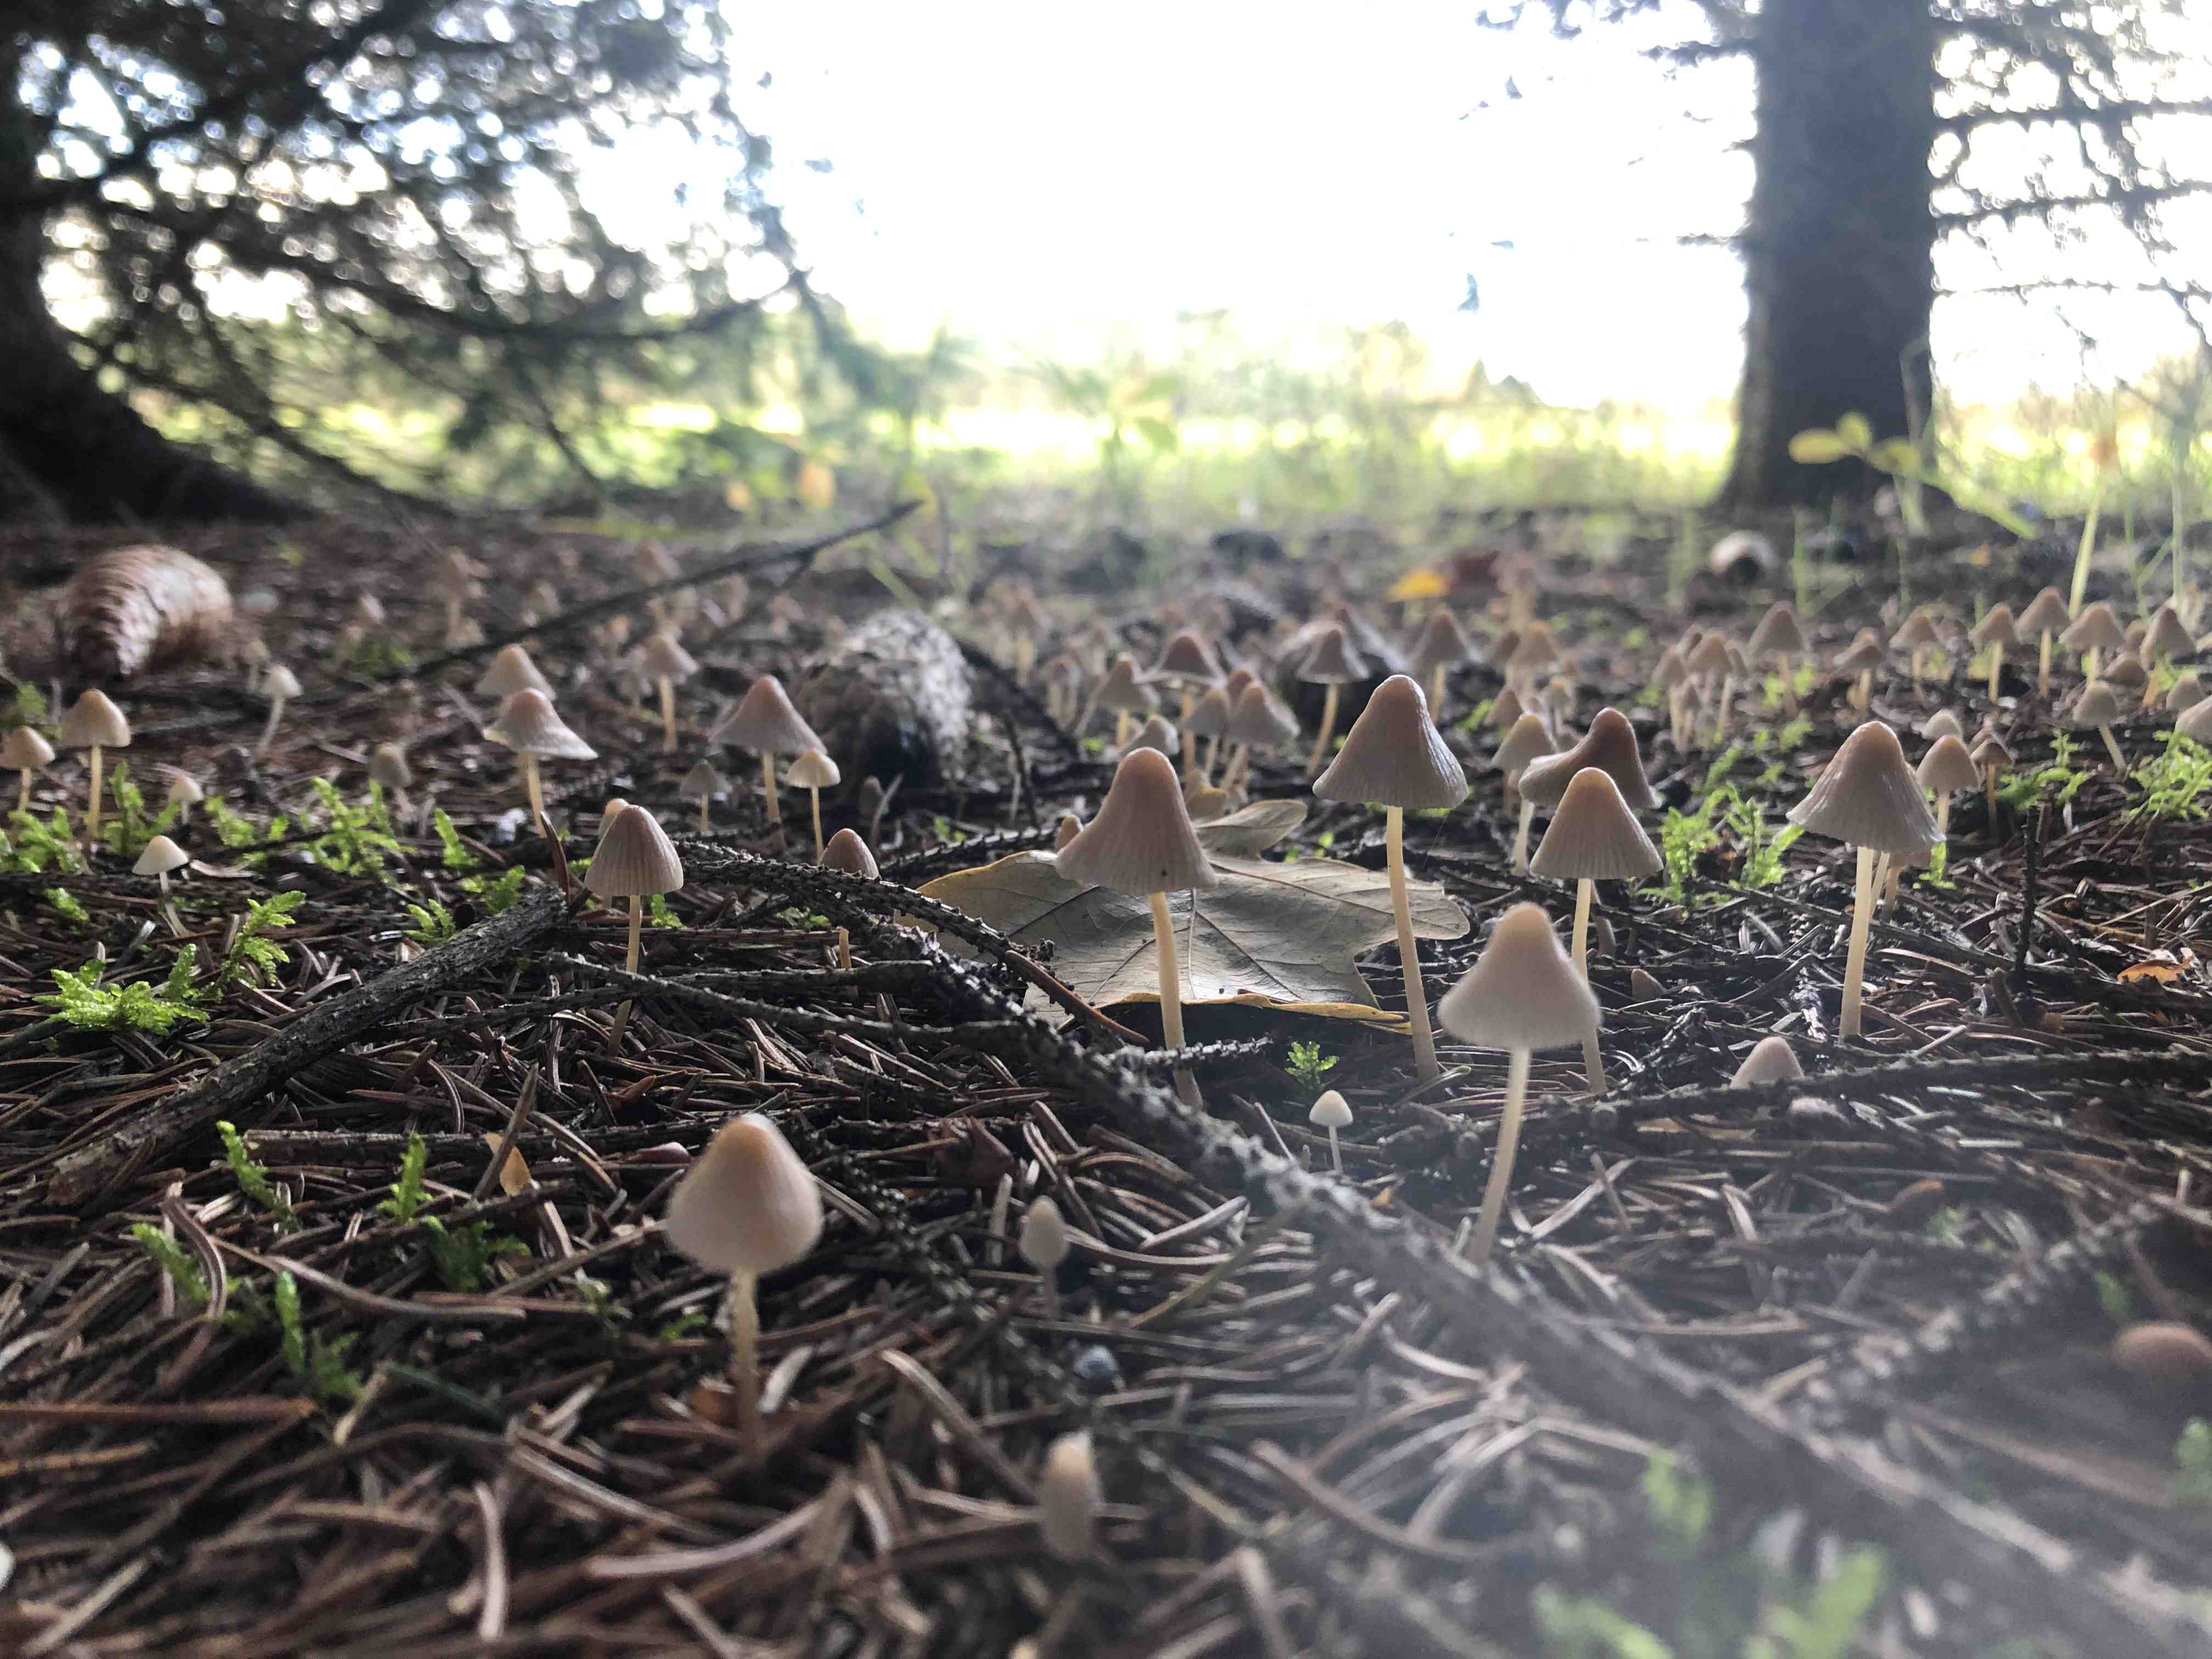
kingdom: Fungi
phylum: Basidiomycota
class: Agaricomycetes
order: Agaricales
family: Mycenaceae
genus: Mycena
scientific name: Mycena metata
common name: rødlig huesvamp
